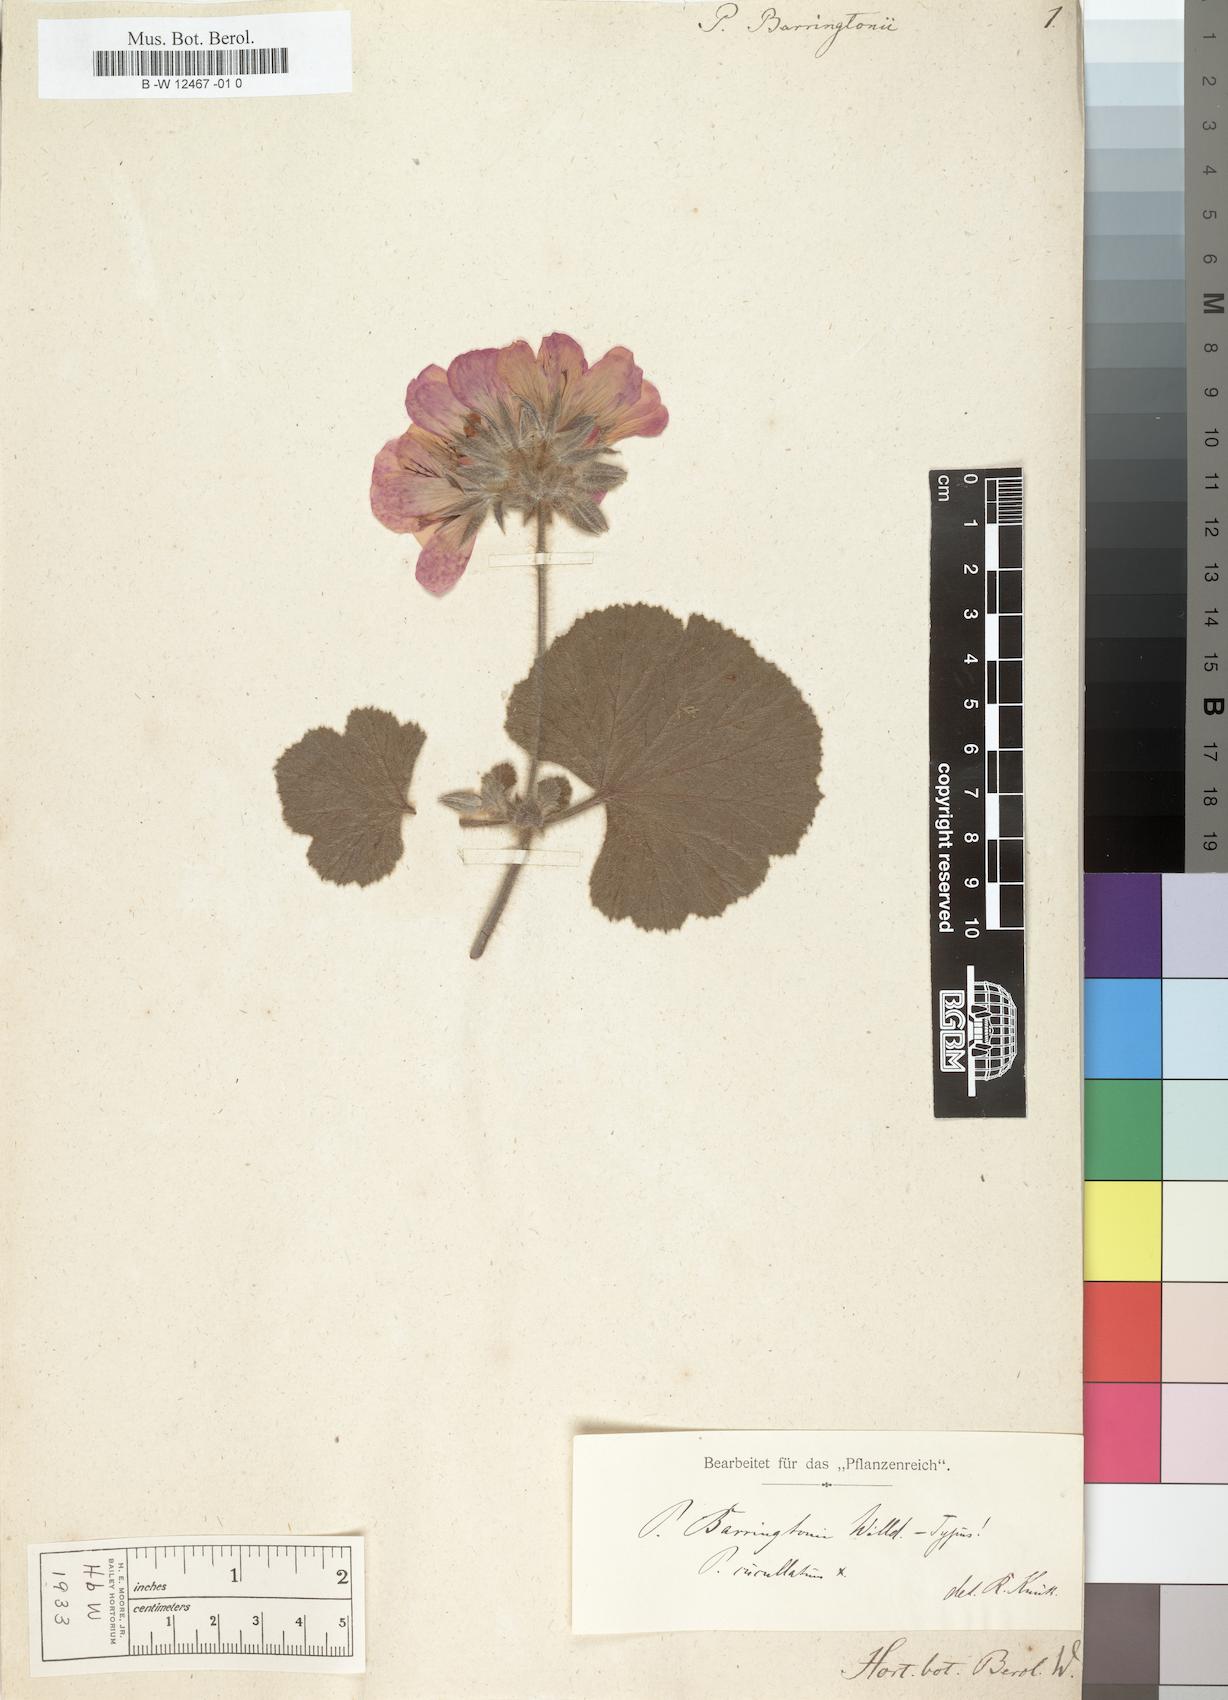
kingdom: Plantae
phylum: Tracheophyta
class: Magnoliopsida
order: Geraniales
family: Geraniaceae
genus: Pelargonium
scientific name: Pelargonium barringtonii
